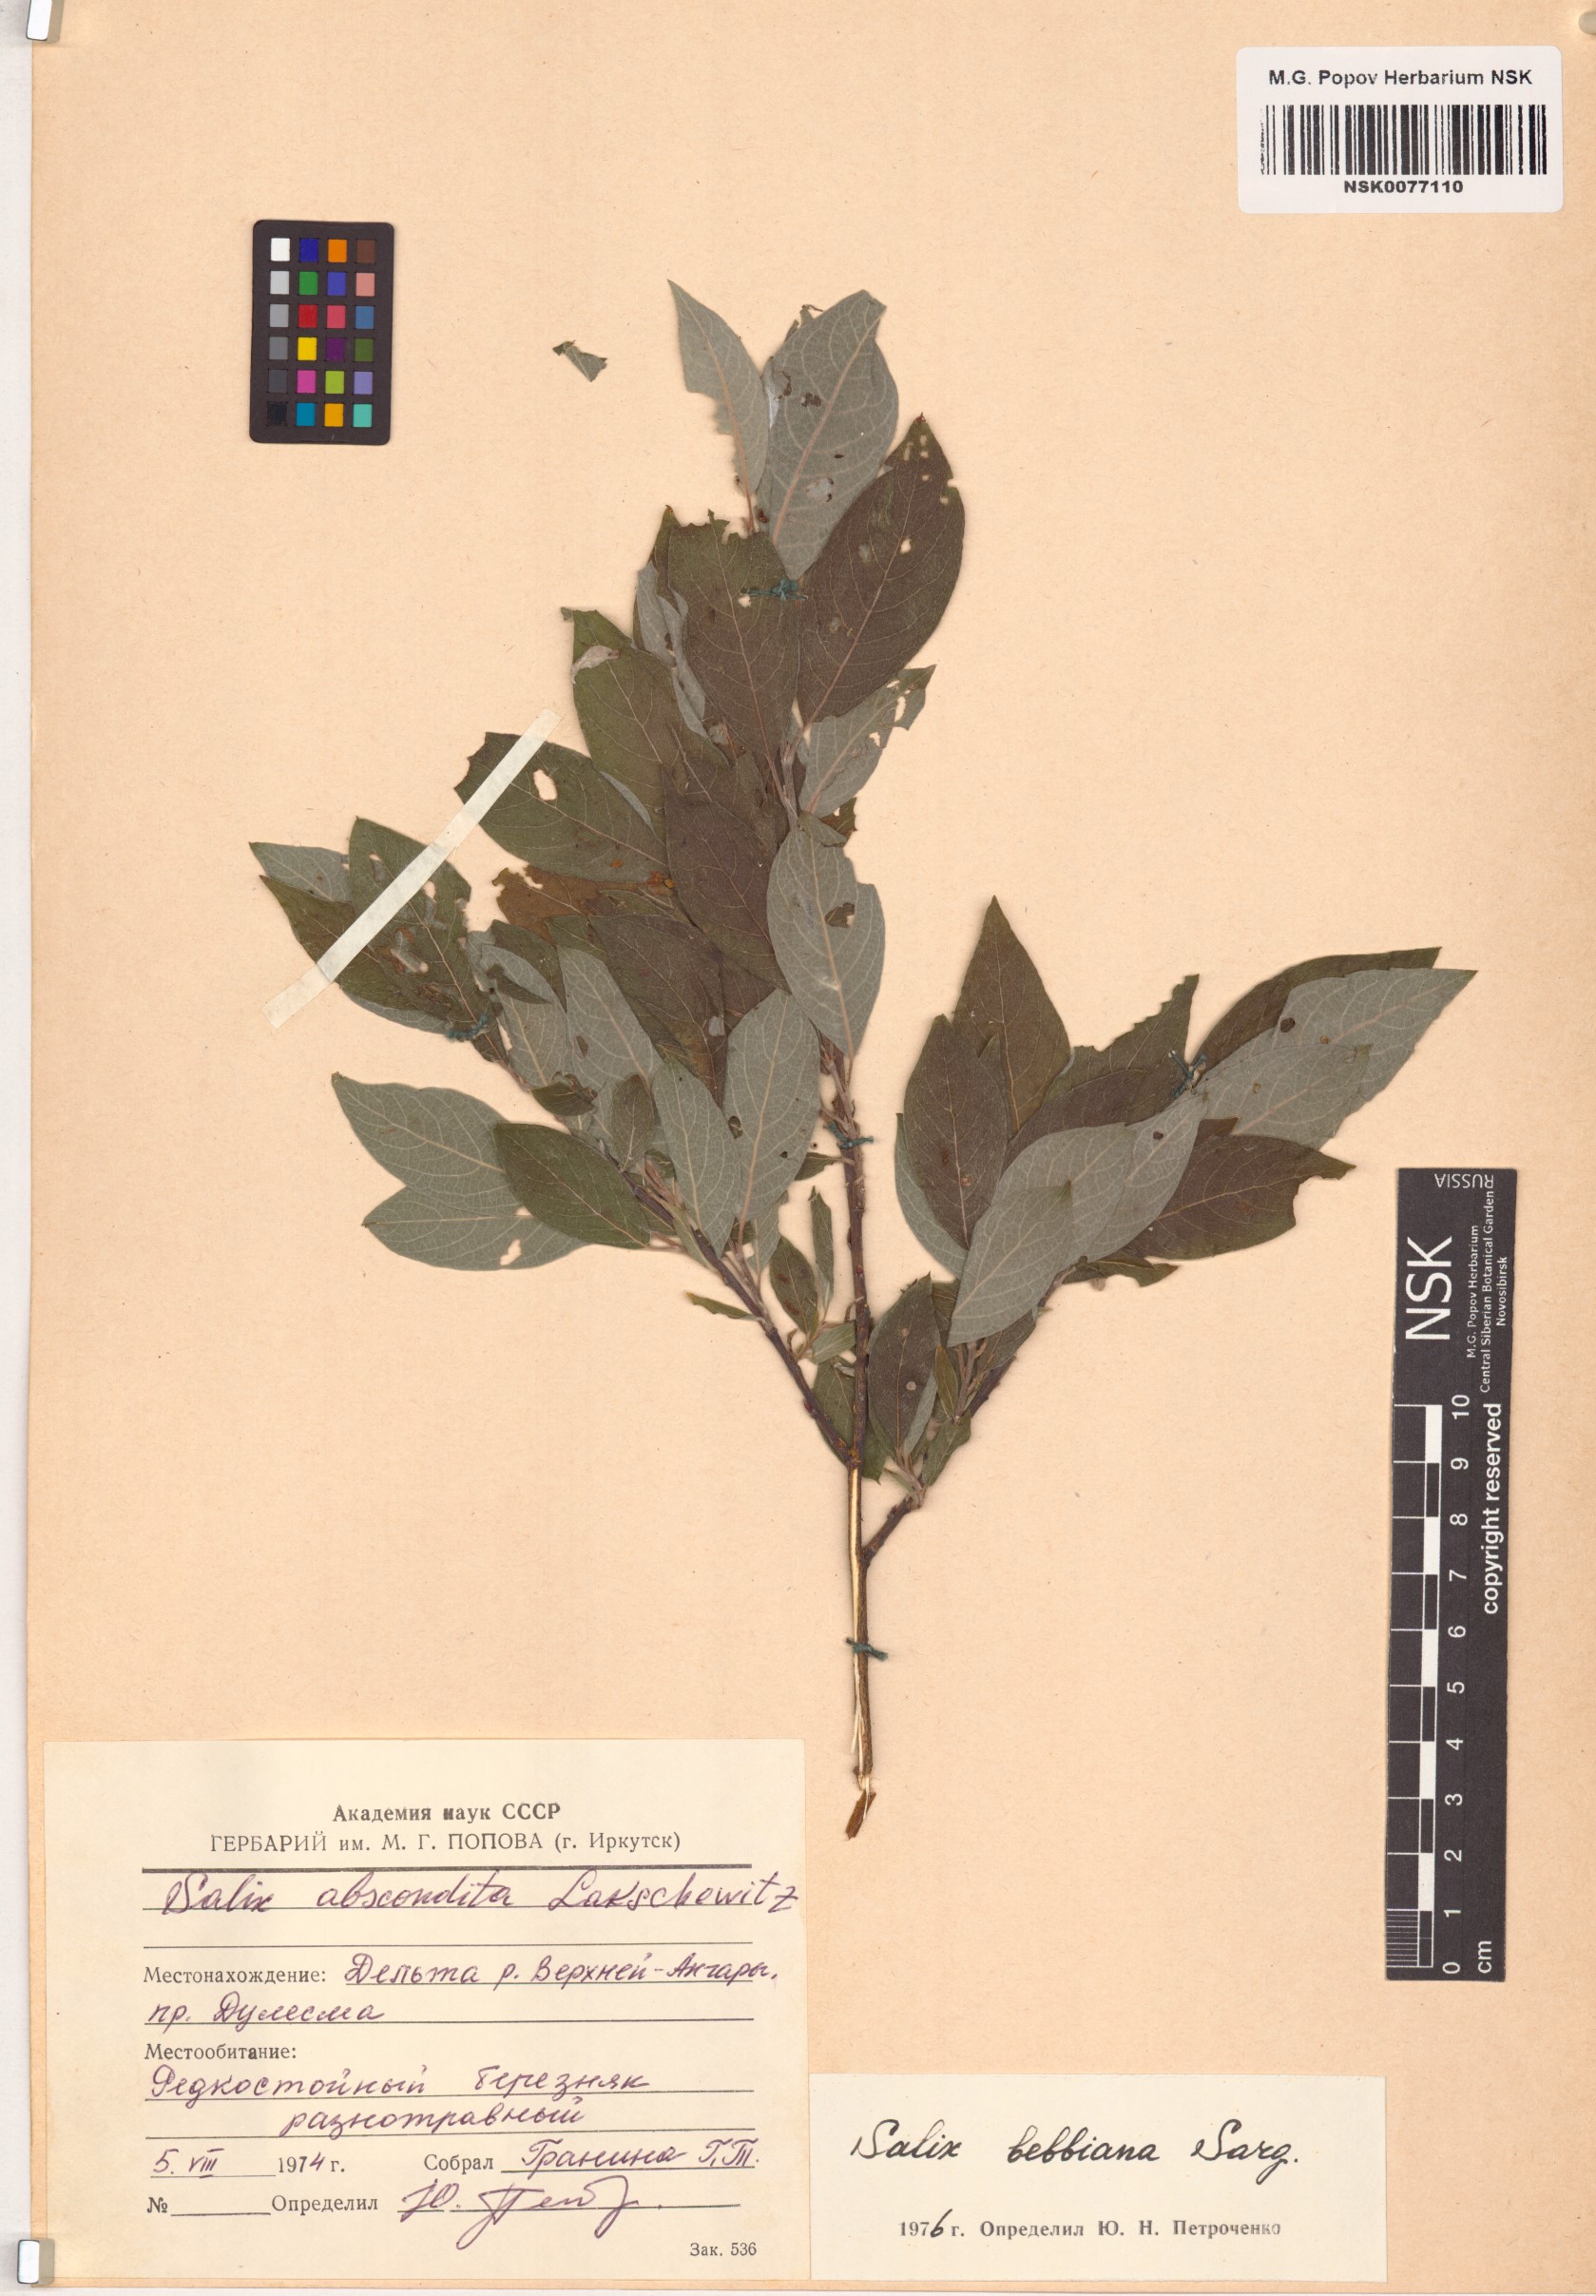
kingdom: Plantae
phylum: Tracheophyta
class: Magnoliopsida
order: Malpighiales
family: Salicaceae
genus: Salix
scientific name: Salix bebbiana
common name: Bebb's willow
